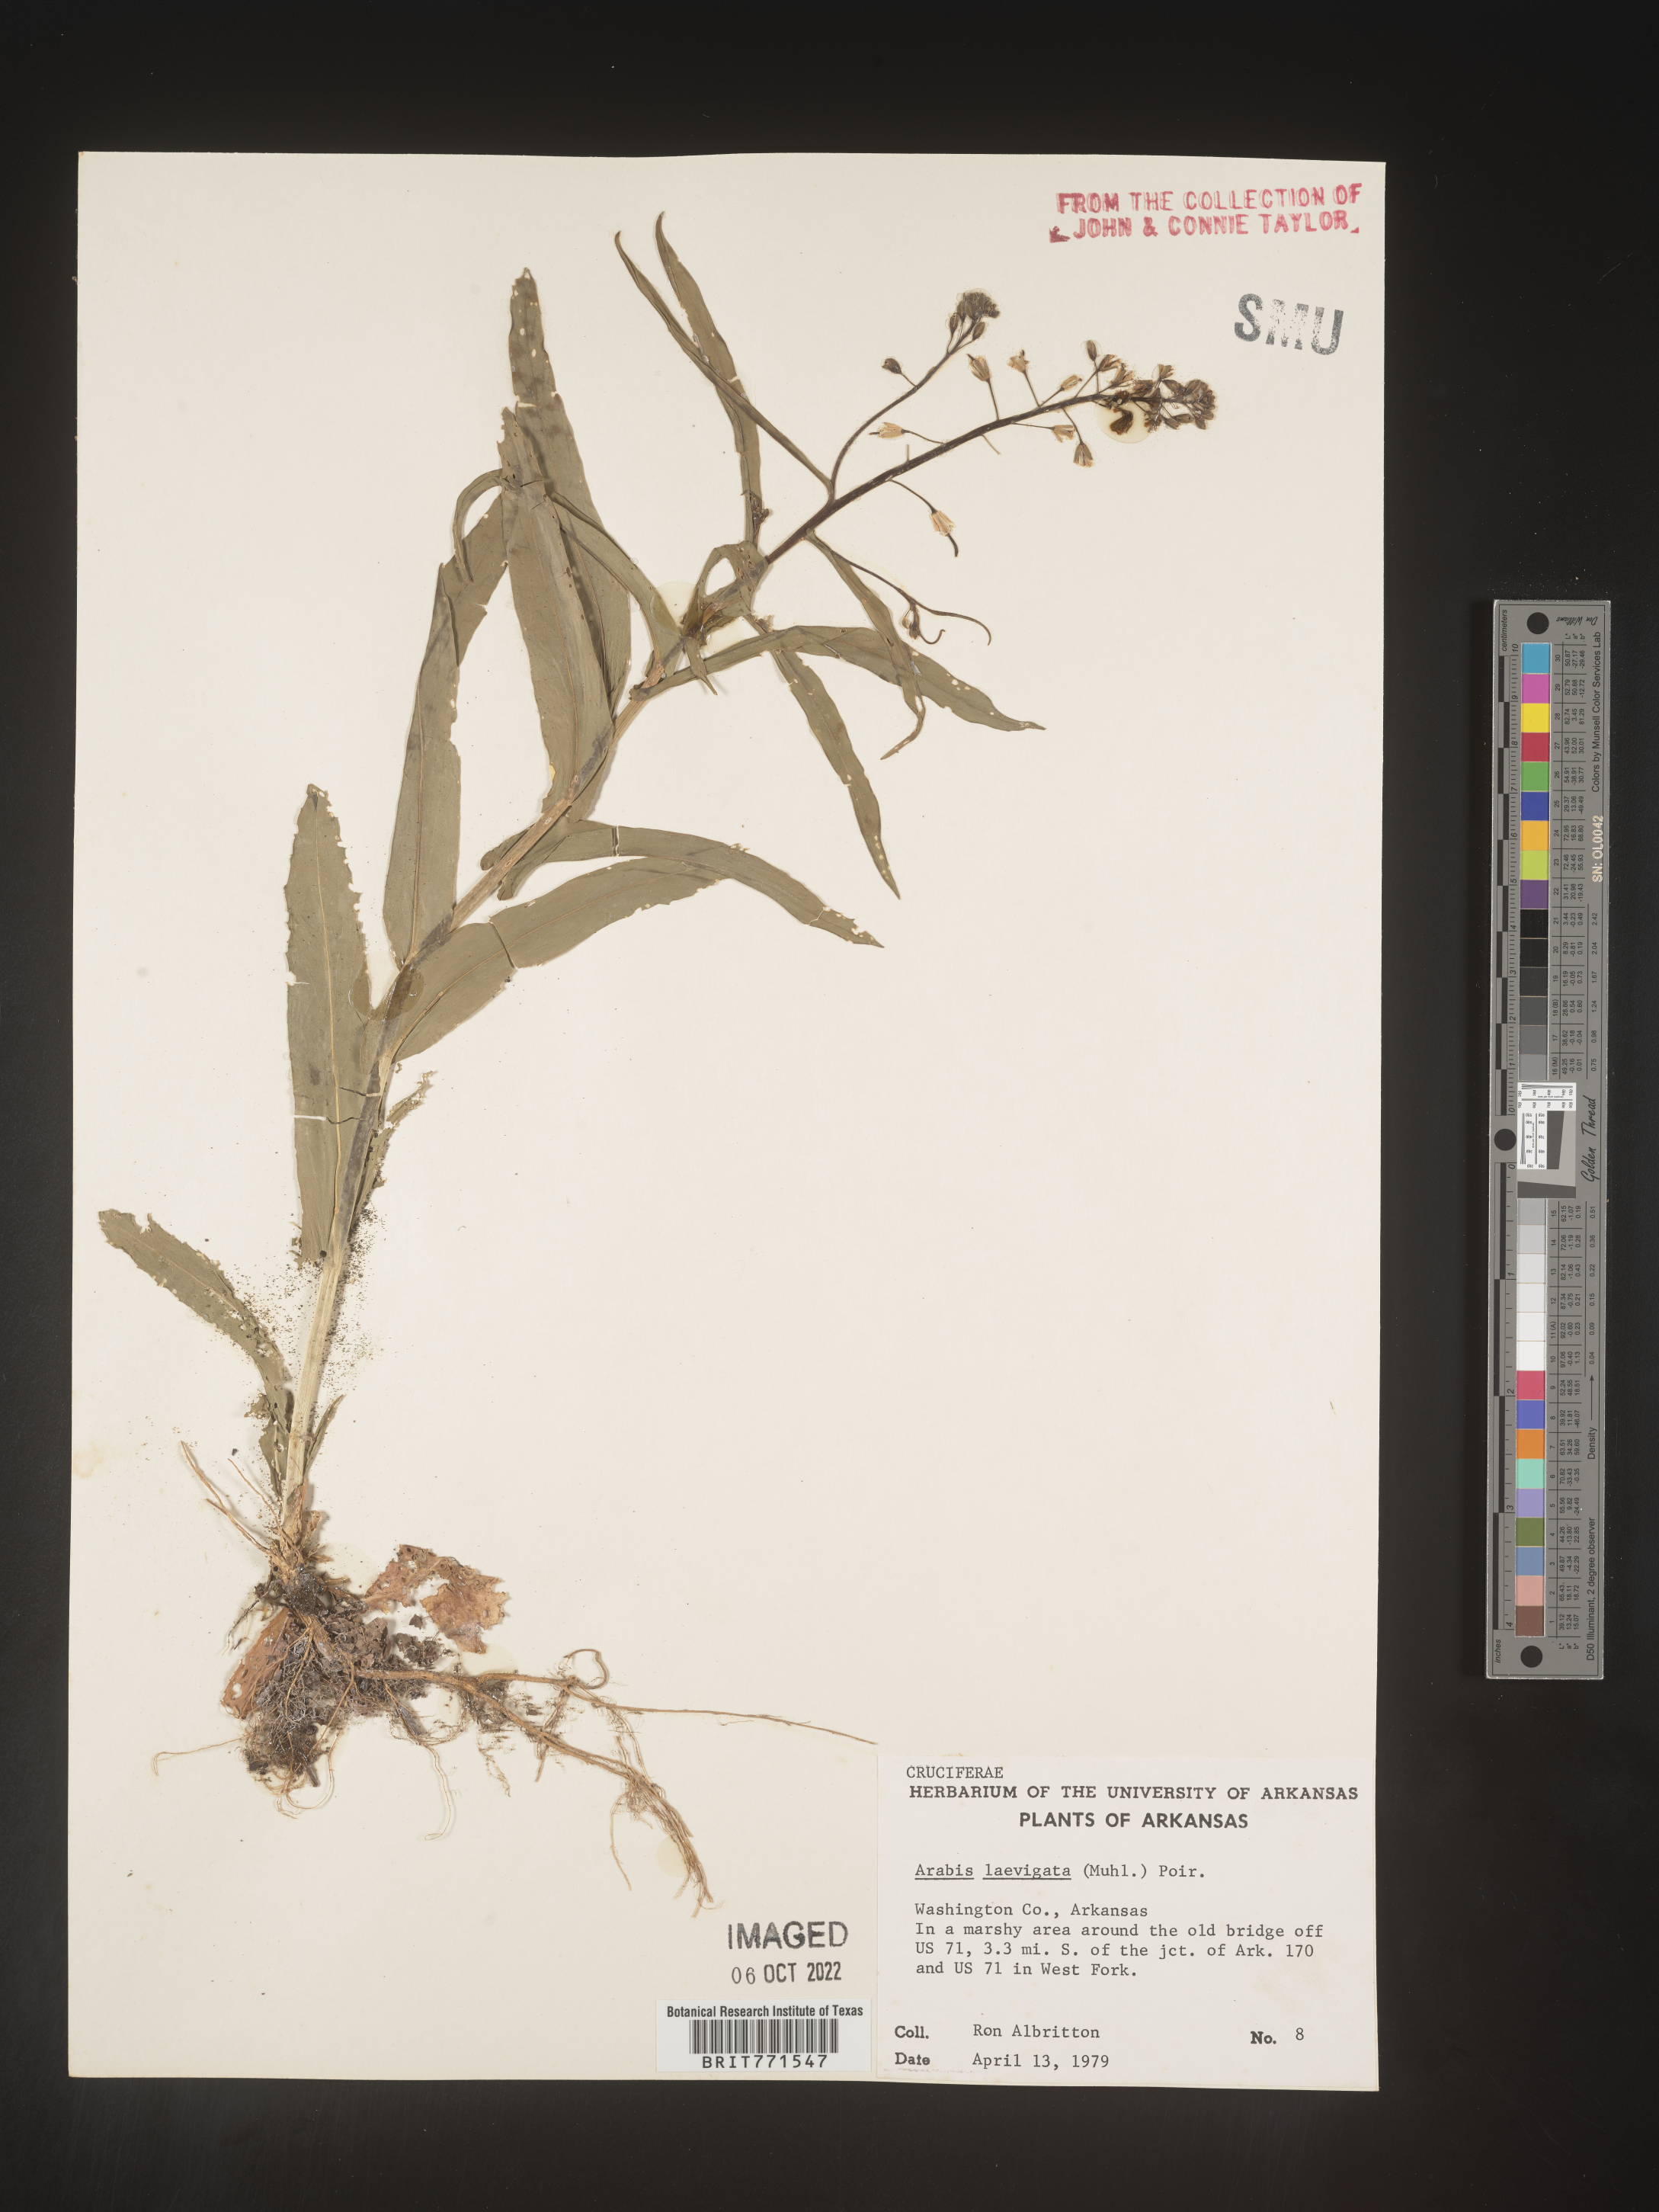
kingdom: Plantae
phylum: Tracheophyta
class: Magnoliopsida
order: Brassicales
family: Brassicaceae
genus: Arabis
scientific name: Arabis laevigata
